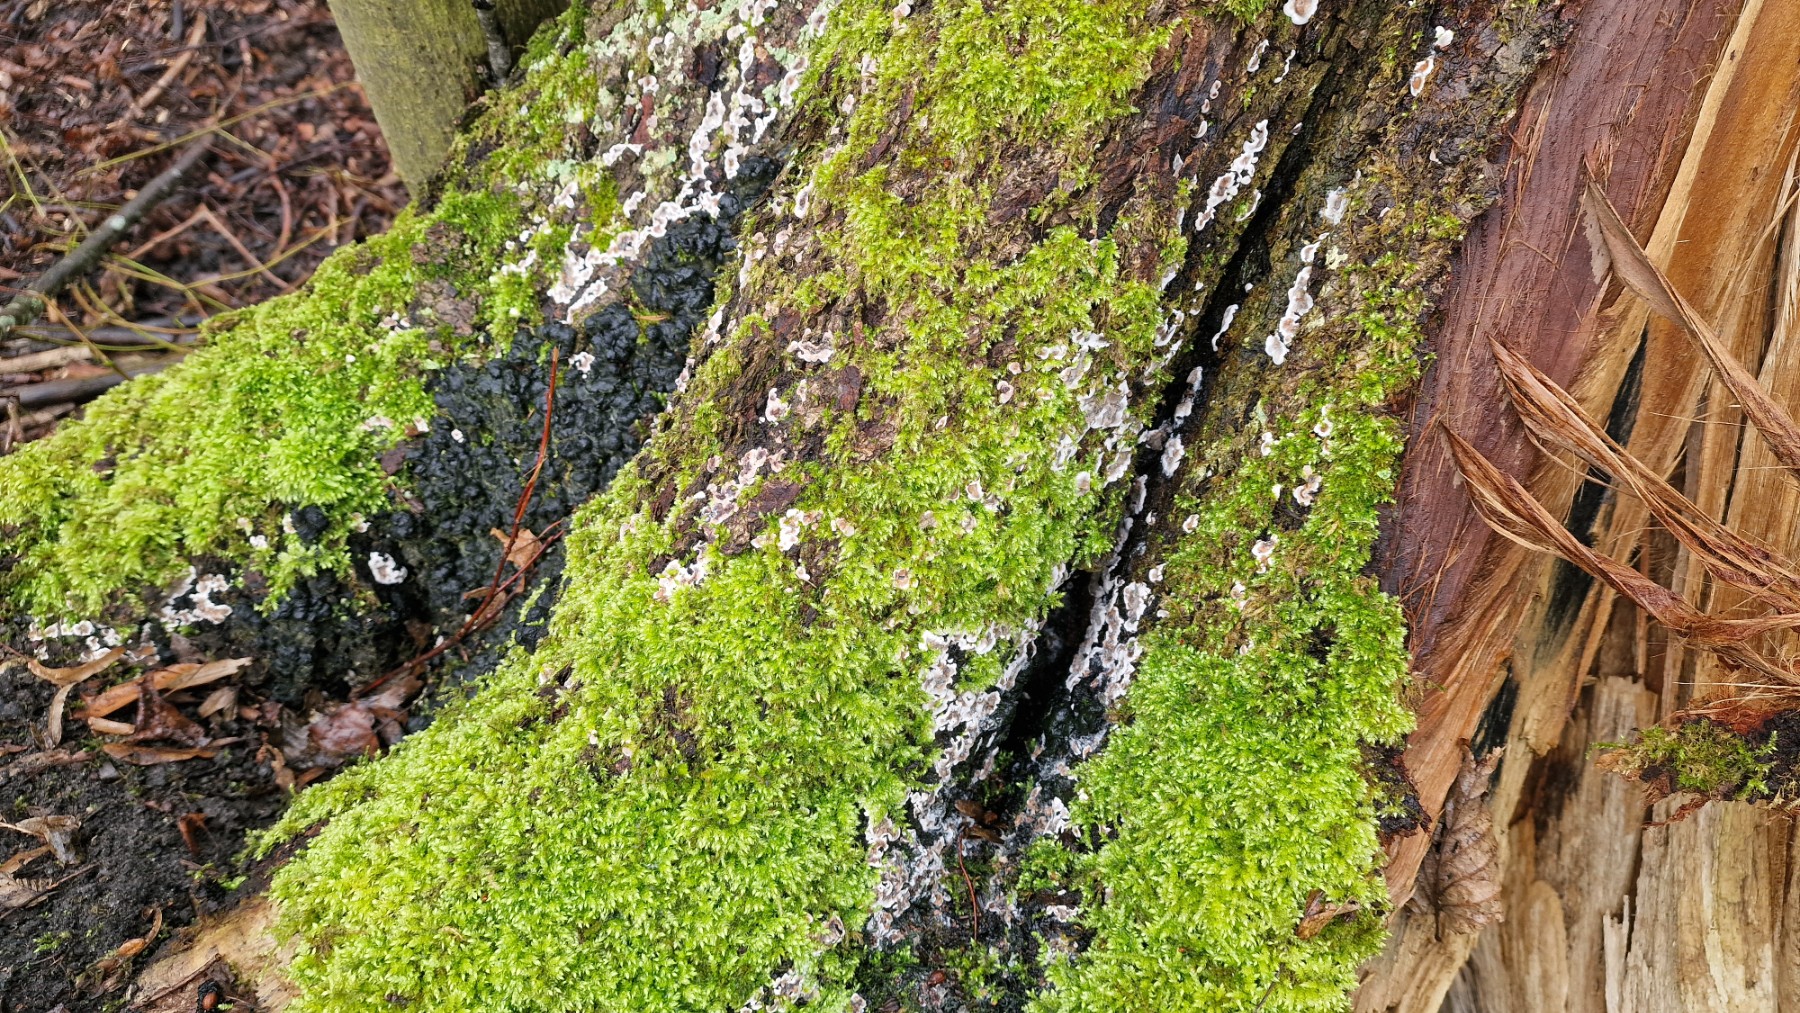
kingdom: Fungi
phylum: Ascomycota
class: Sordariomycetes
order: Xylariales
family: Xylariaceae
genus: Kretzschmaria
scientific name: Kretzschmaria deusta
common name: stor kulsvamp
